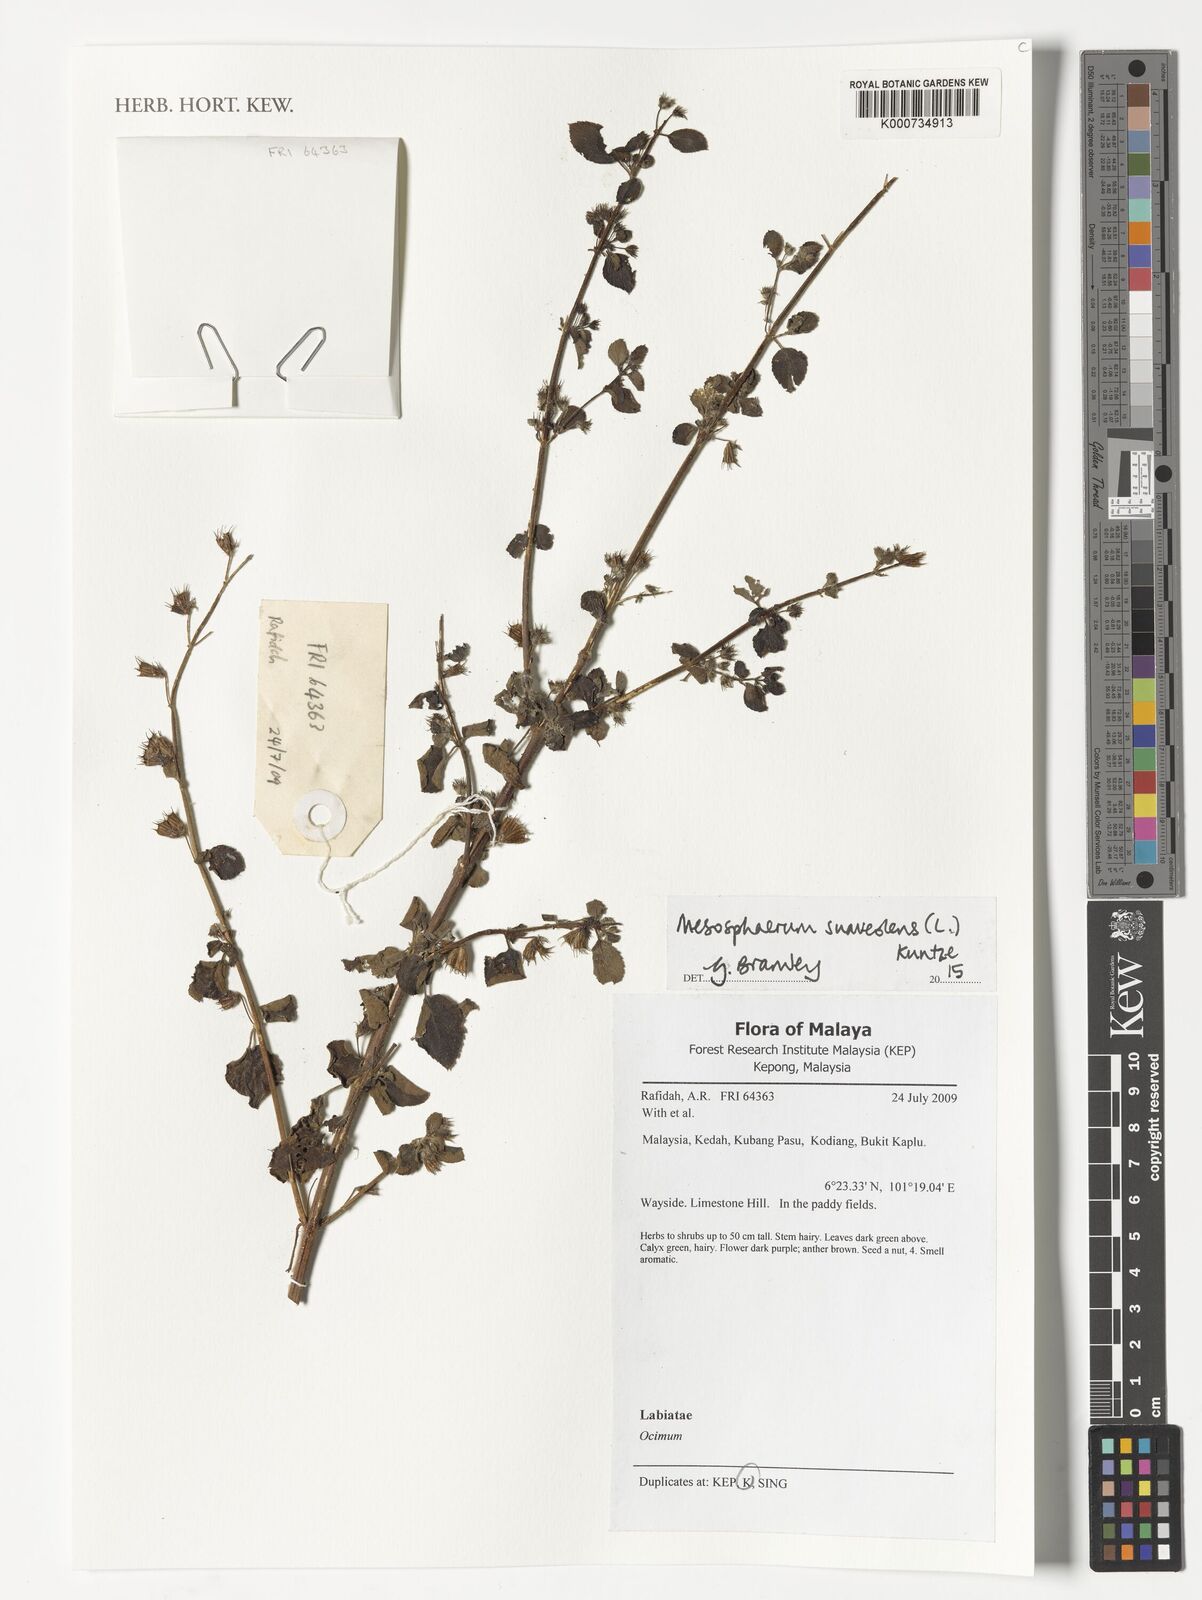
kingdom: Plantae
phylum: Tracheophyta
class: Magnoliopsida
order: Lamiales
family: Lamiaceae
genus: Mesosphaerum
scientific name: Mesosphaerum suaveolens
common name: Pignut
